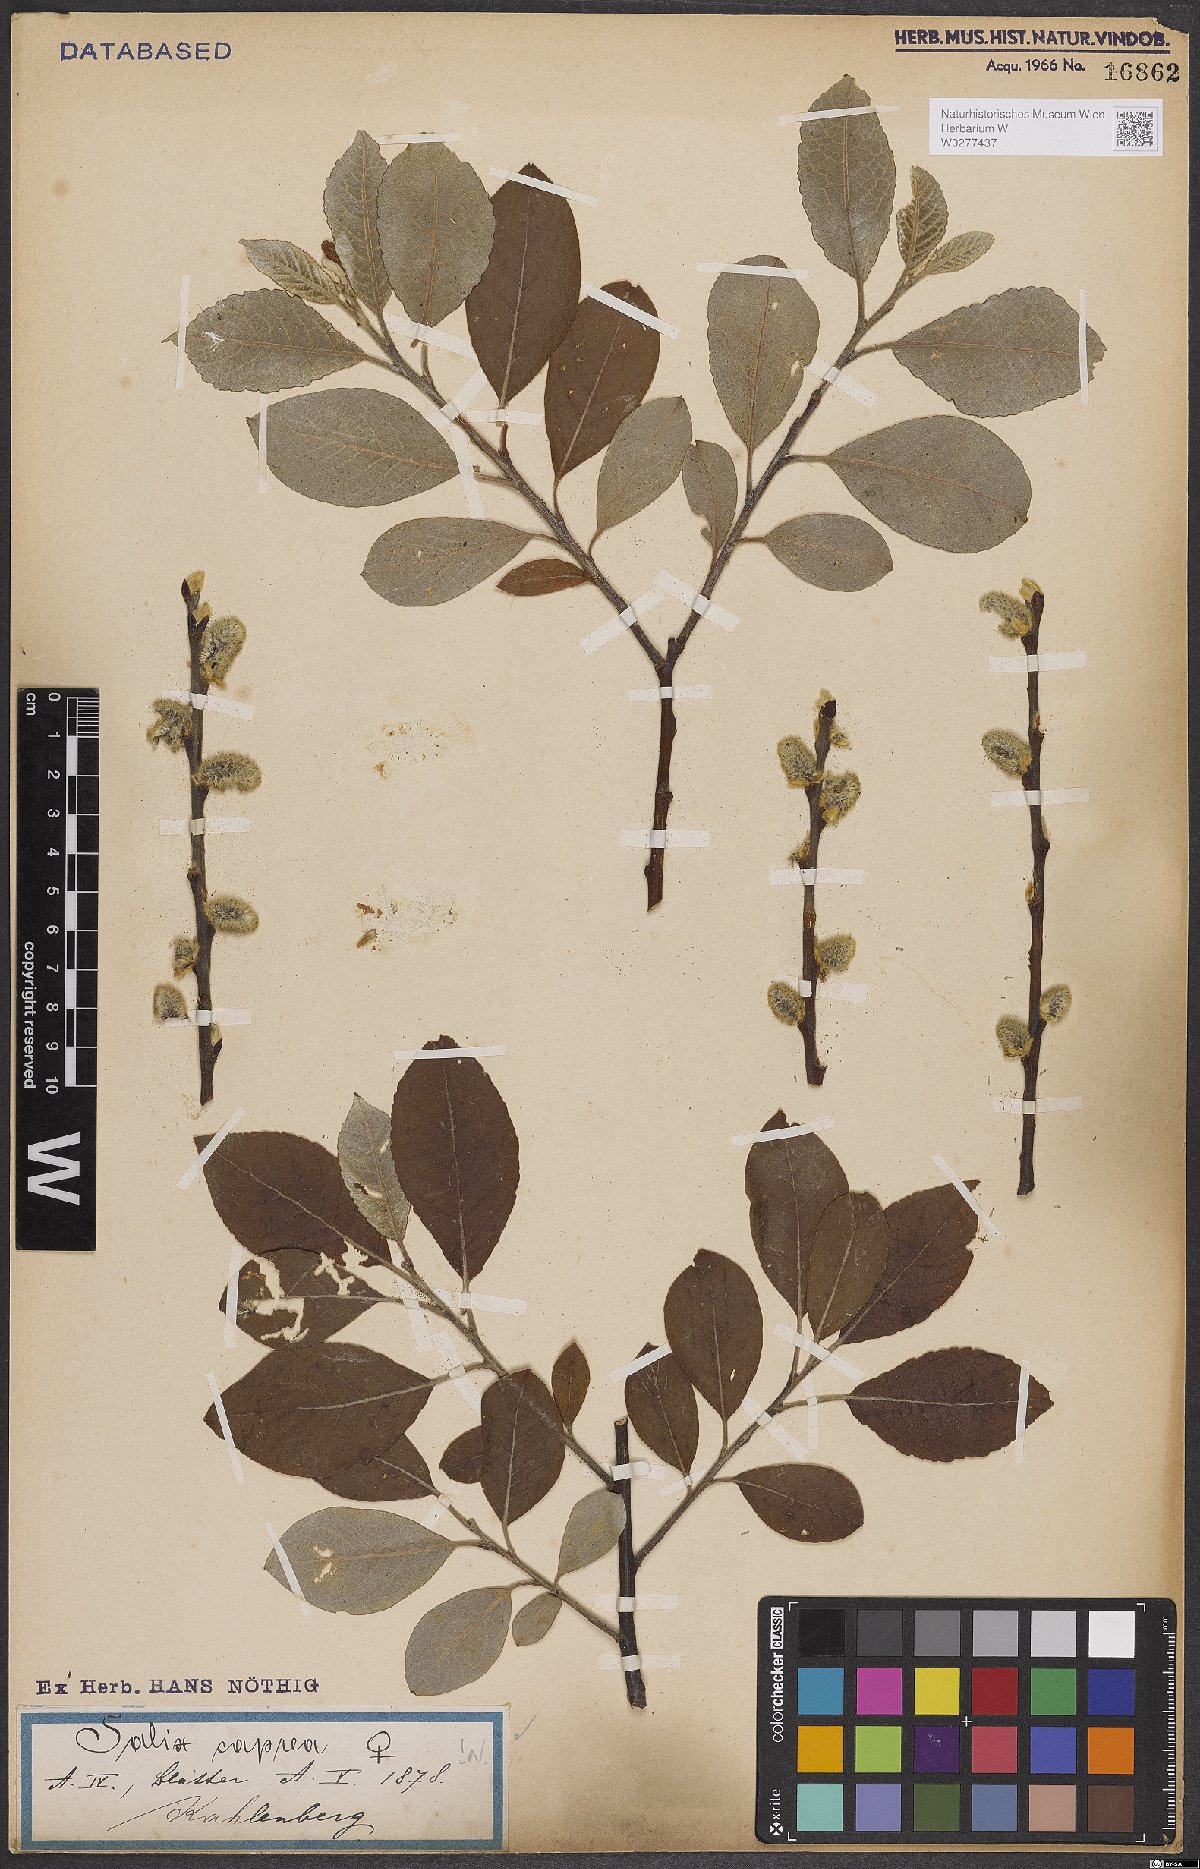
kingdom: Plantae
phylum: Tracheophyta
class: Magnoliopsida
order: Malpighiales
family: Salicaceae
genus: Salix
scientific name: Salix caprea
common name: Goat willow
